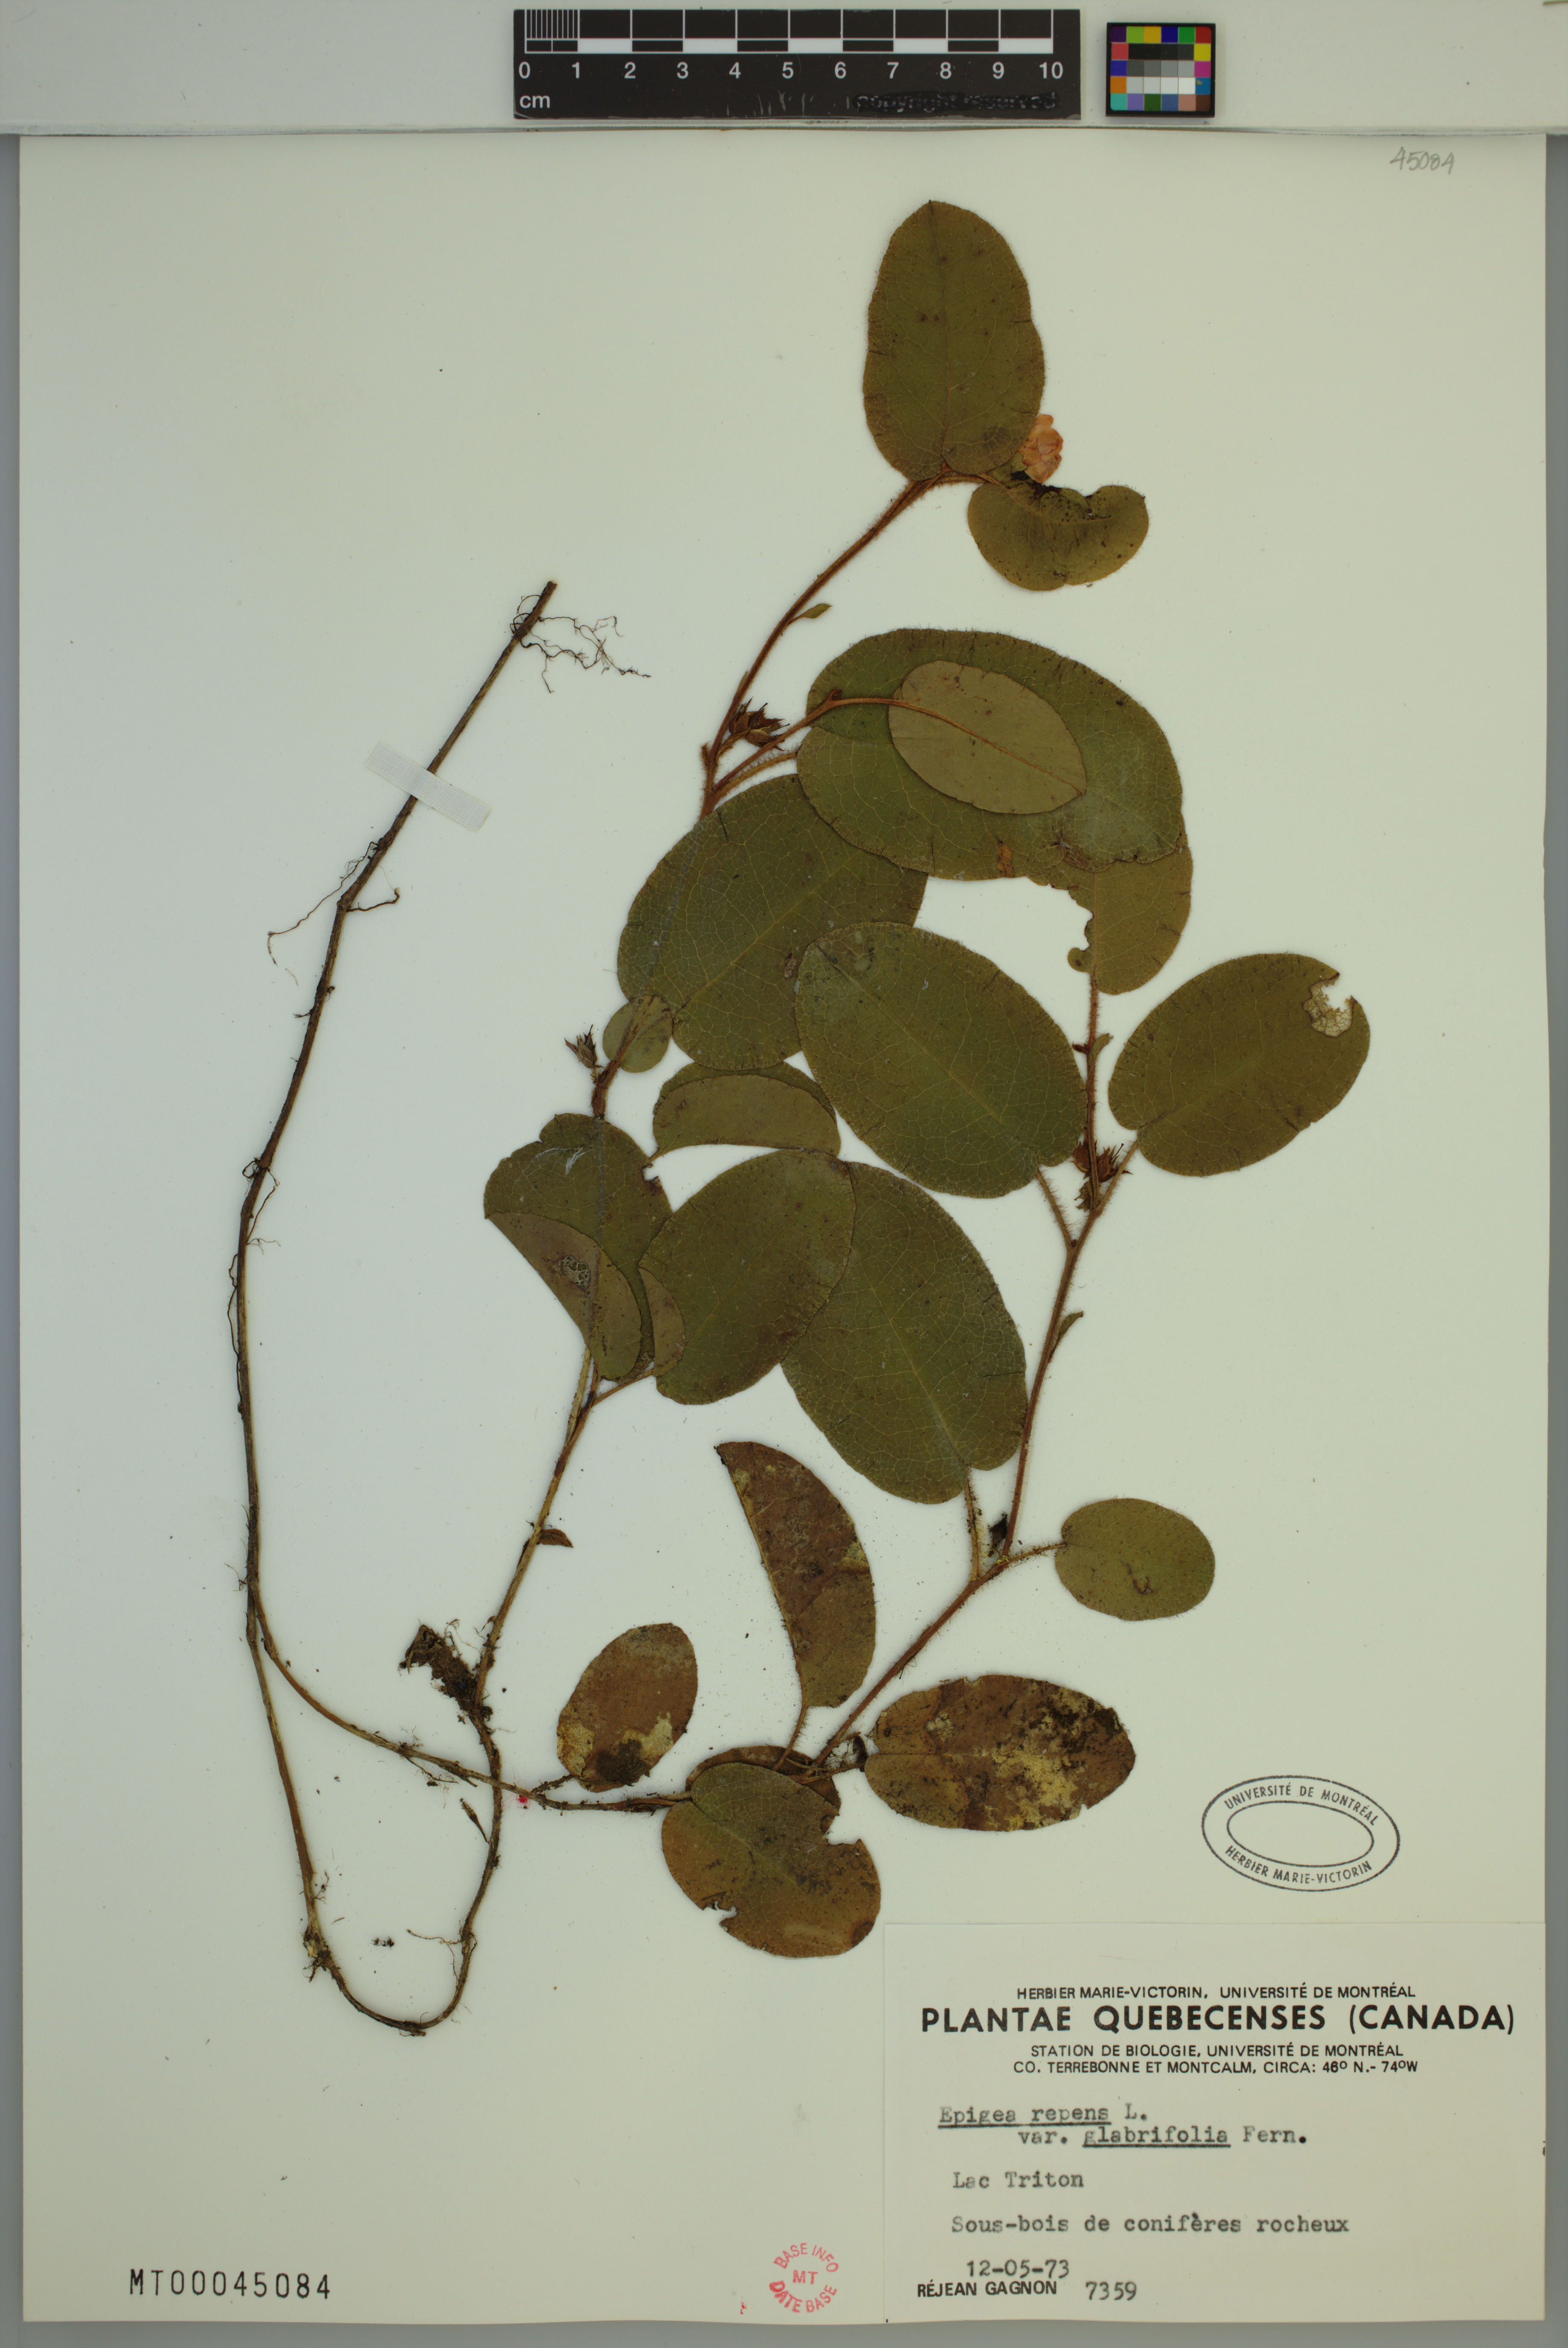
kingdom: Plantae
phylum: Tracheophyta
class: Magnoliopsida
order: Ericales
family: Ericaceae
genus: Epigaea
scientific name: Epigaea repens
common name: Gravelroot
